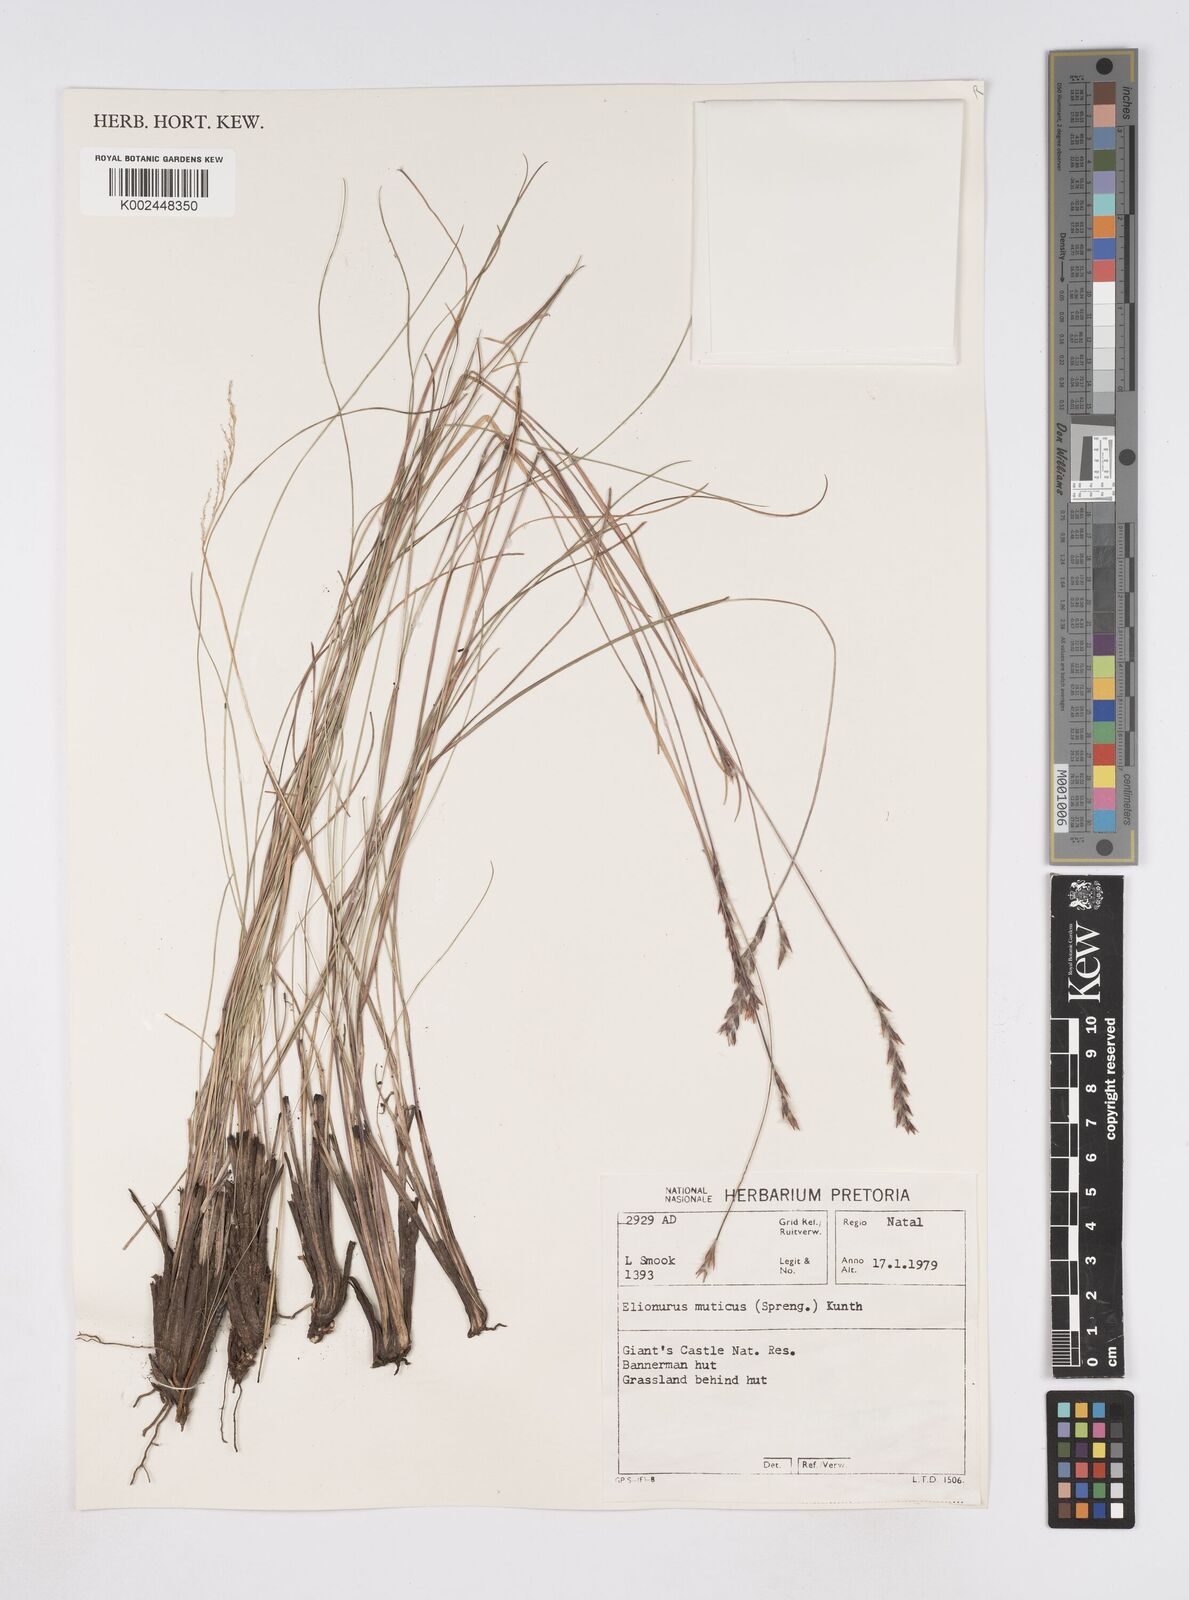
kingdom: Plantae
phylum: Tracheophyta
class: Liliopsida
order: Poales
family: Poaceae
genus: Elionurus
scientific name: Elionurus muticus
